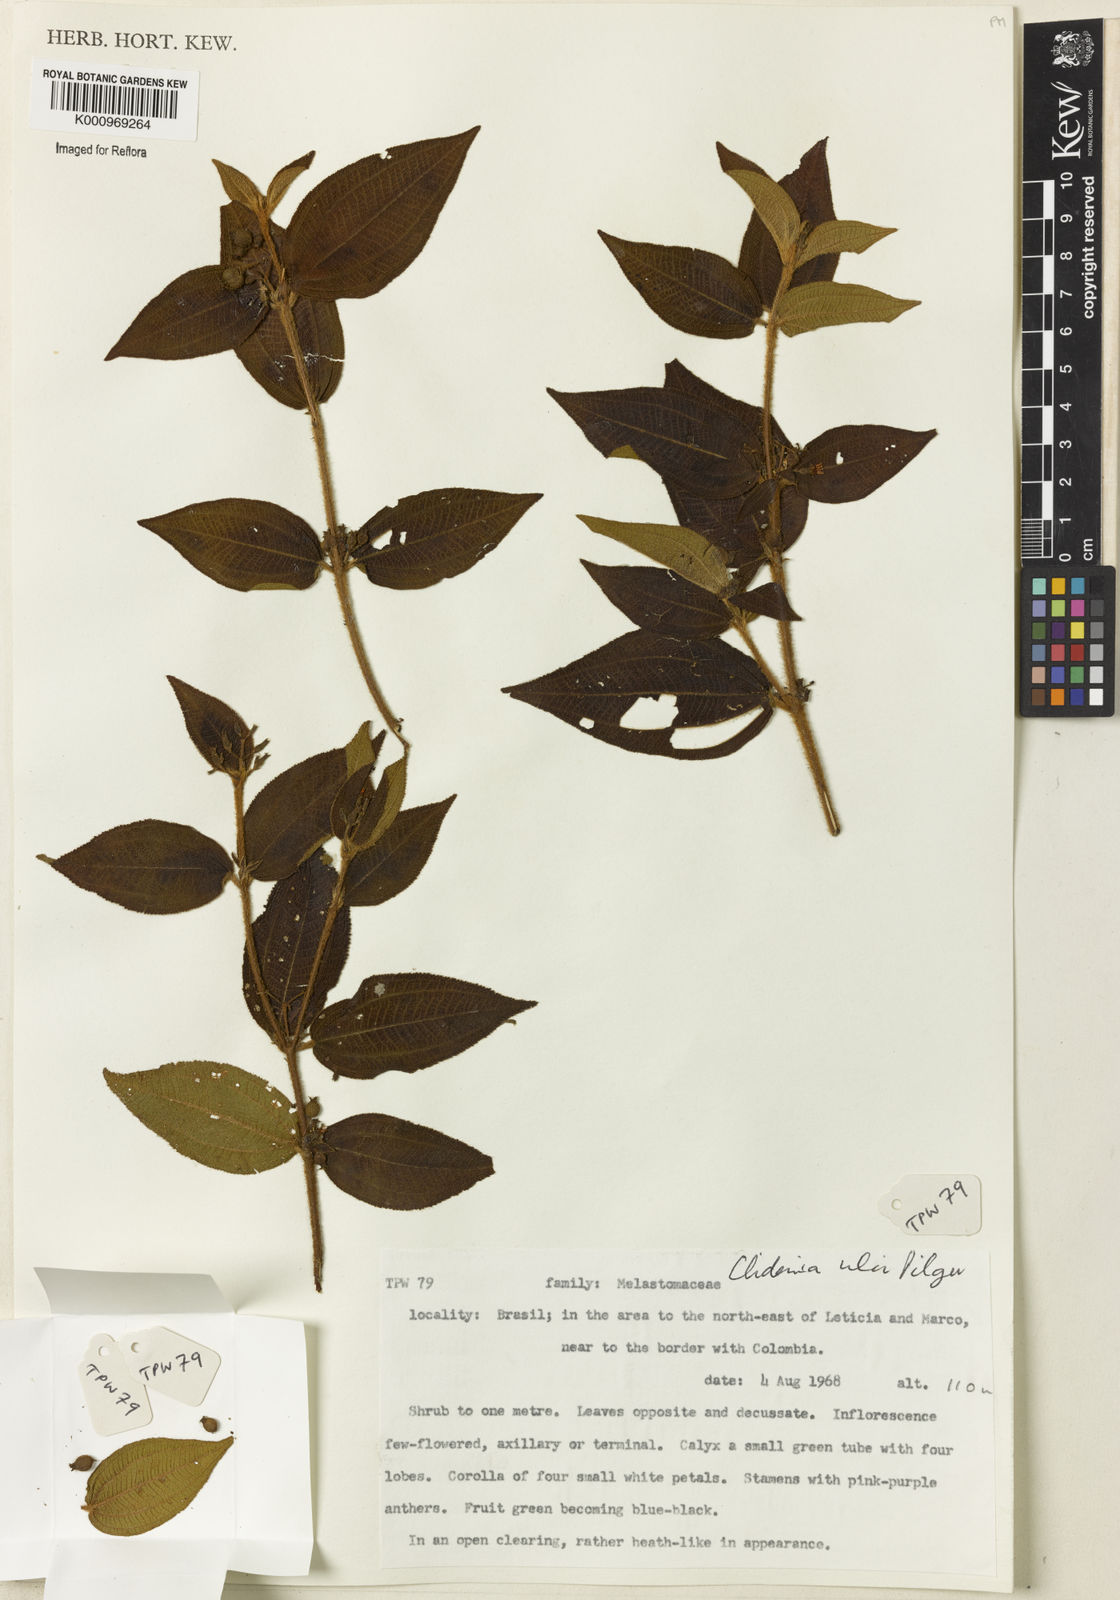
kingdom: Plantae
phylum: Tracheophyta
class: Magnoliopsida
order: Myrtales
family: Melastomataceae
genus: Miconia
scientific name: Miconia ernstulei
